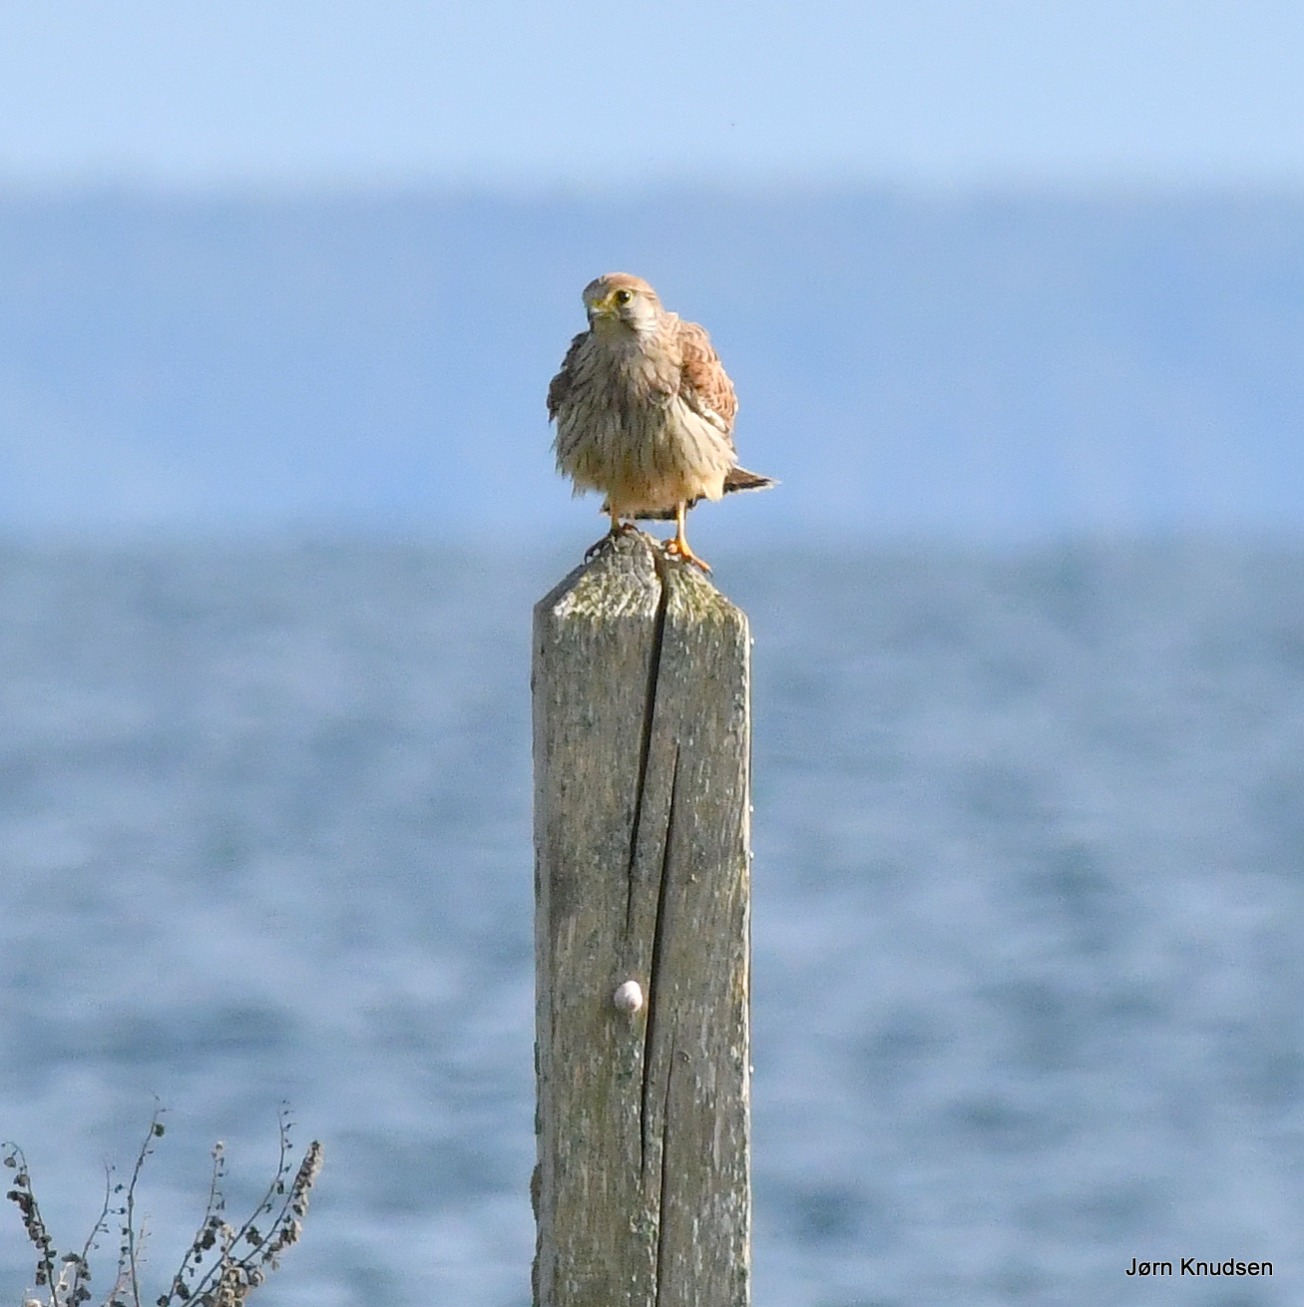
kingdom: Animalia
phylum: Chordata
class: Aves
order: Falconiformes
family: Falconidae
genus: Falco
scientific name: Falco tinnunculus
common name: Tårnfalk
